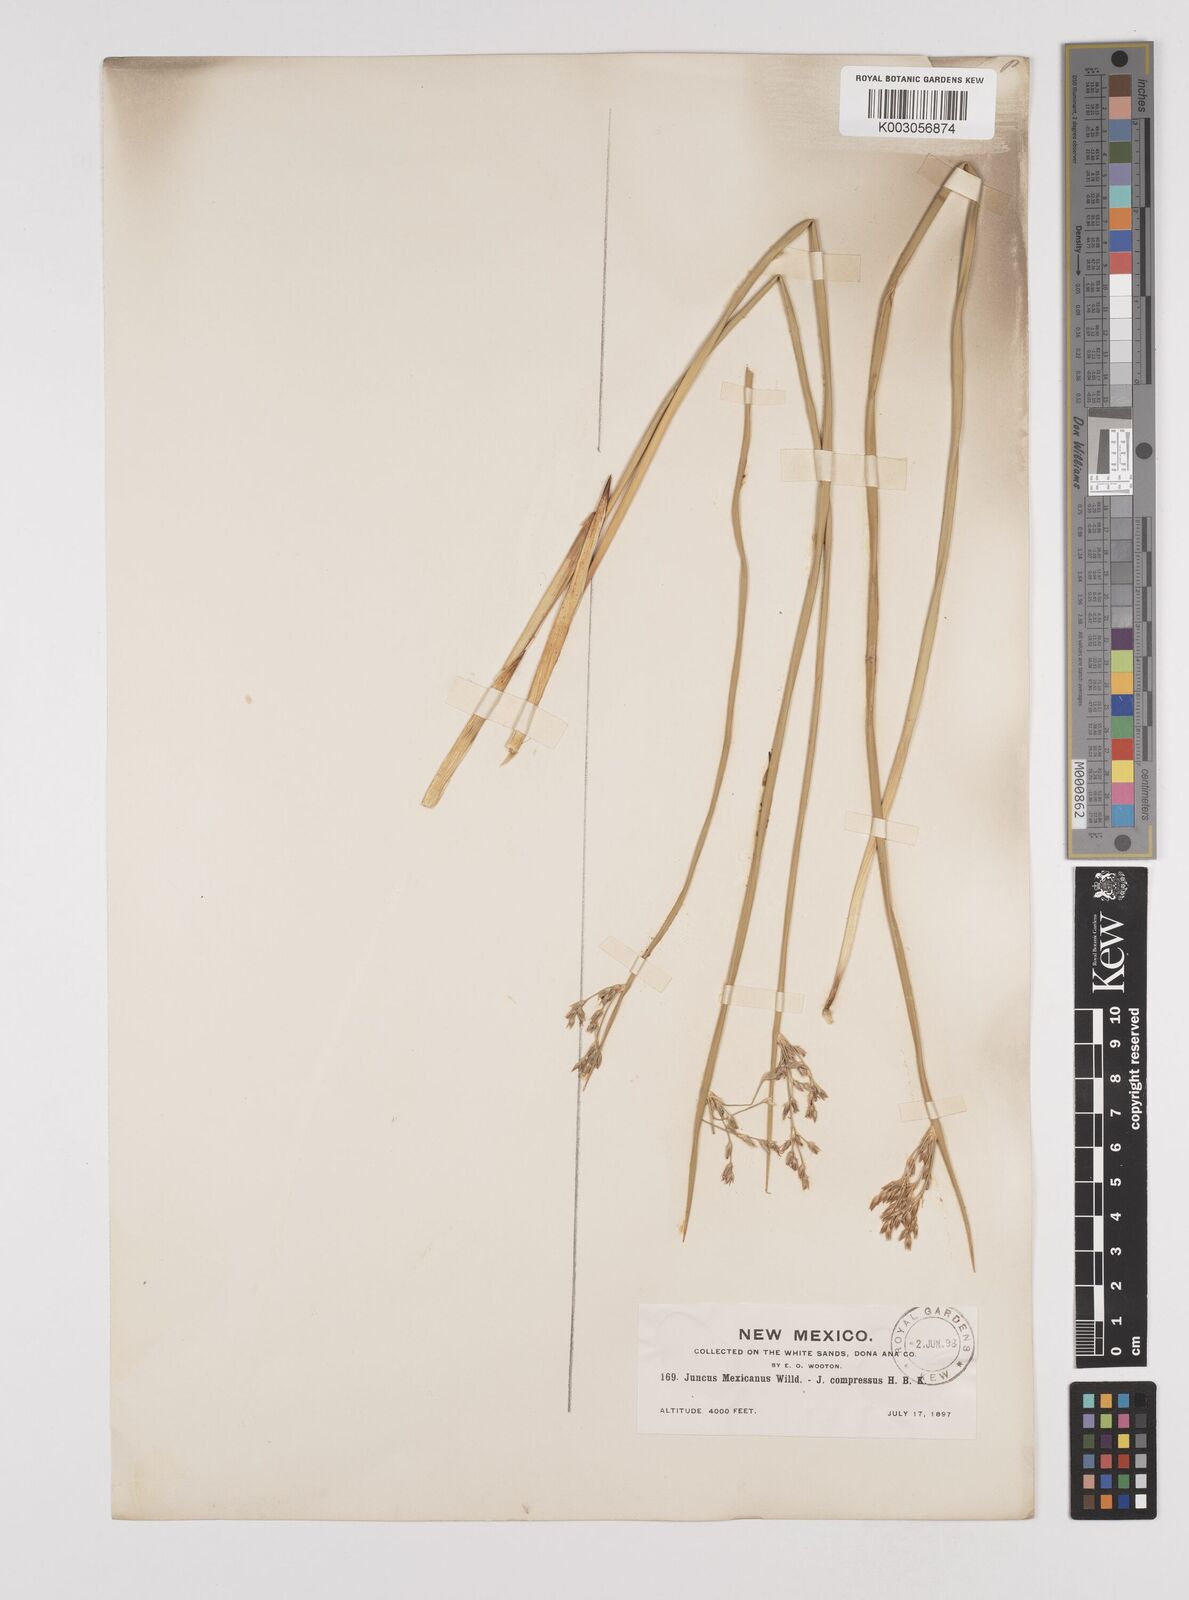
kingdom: Plantae
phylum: Tracheophyta
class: Liliopsida
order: Poales
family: Juncaceae
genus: Juncus
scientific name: Juncus balticus
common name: Baltic rush
